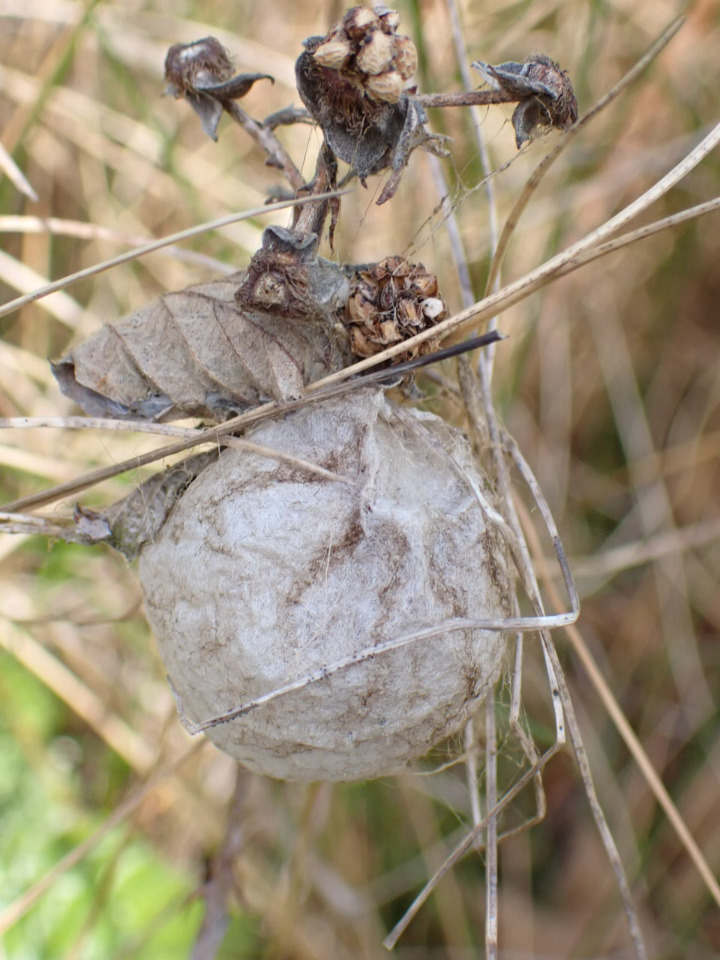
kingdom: Animalia
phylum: Arthropoda
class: Arachnida
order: Araneae
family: Araneidae
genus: Argiope
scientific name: Argiope bruennichi
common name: Hvepseedderkop
